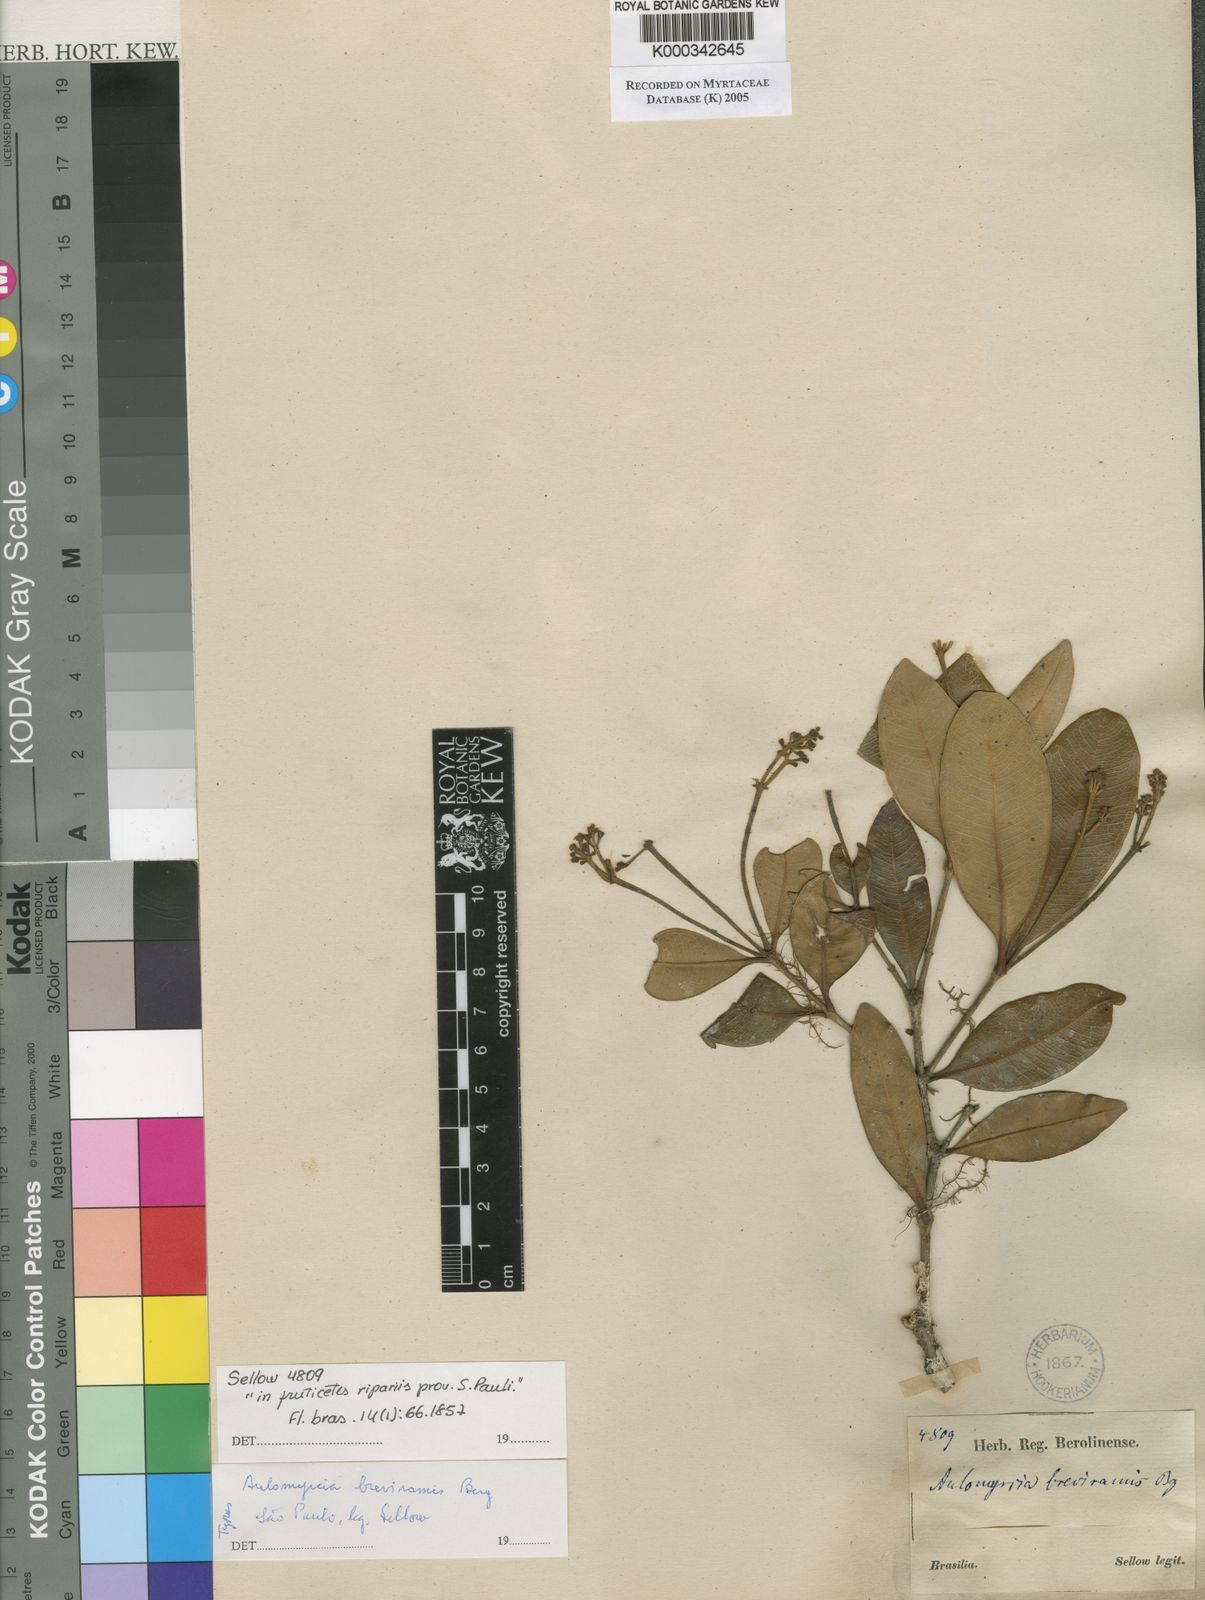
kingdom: Plantae
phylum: Tracheophyta
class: Magnoliopsida
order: Myrtales
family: Myrtaceae
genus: Myrcia
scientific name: Myrcia pulchra
